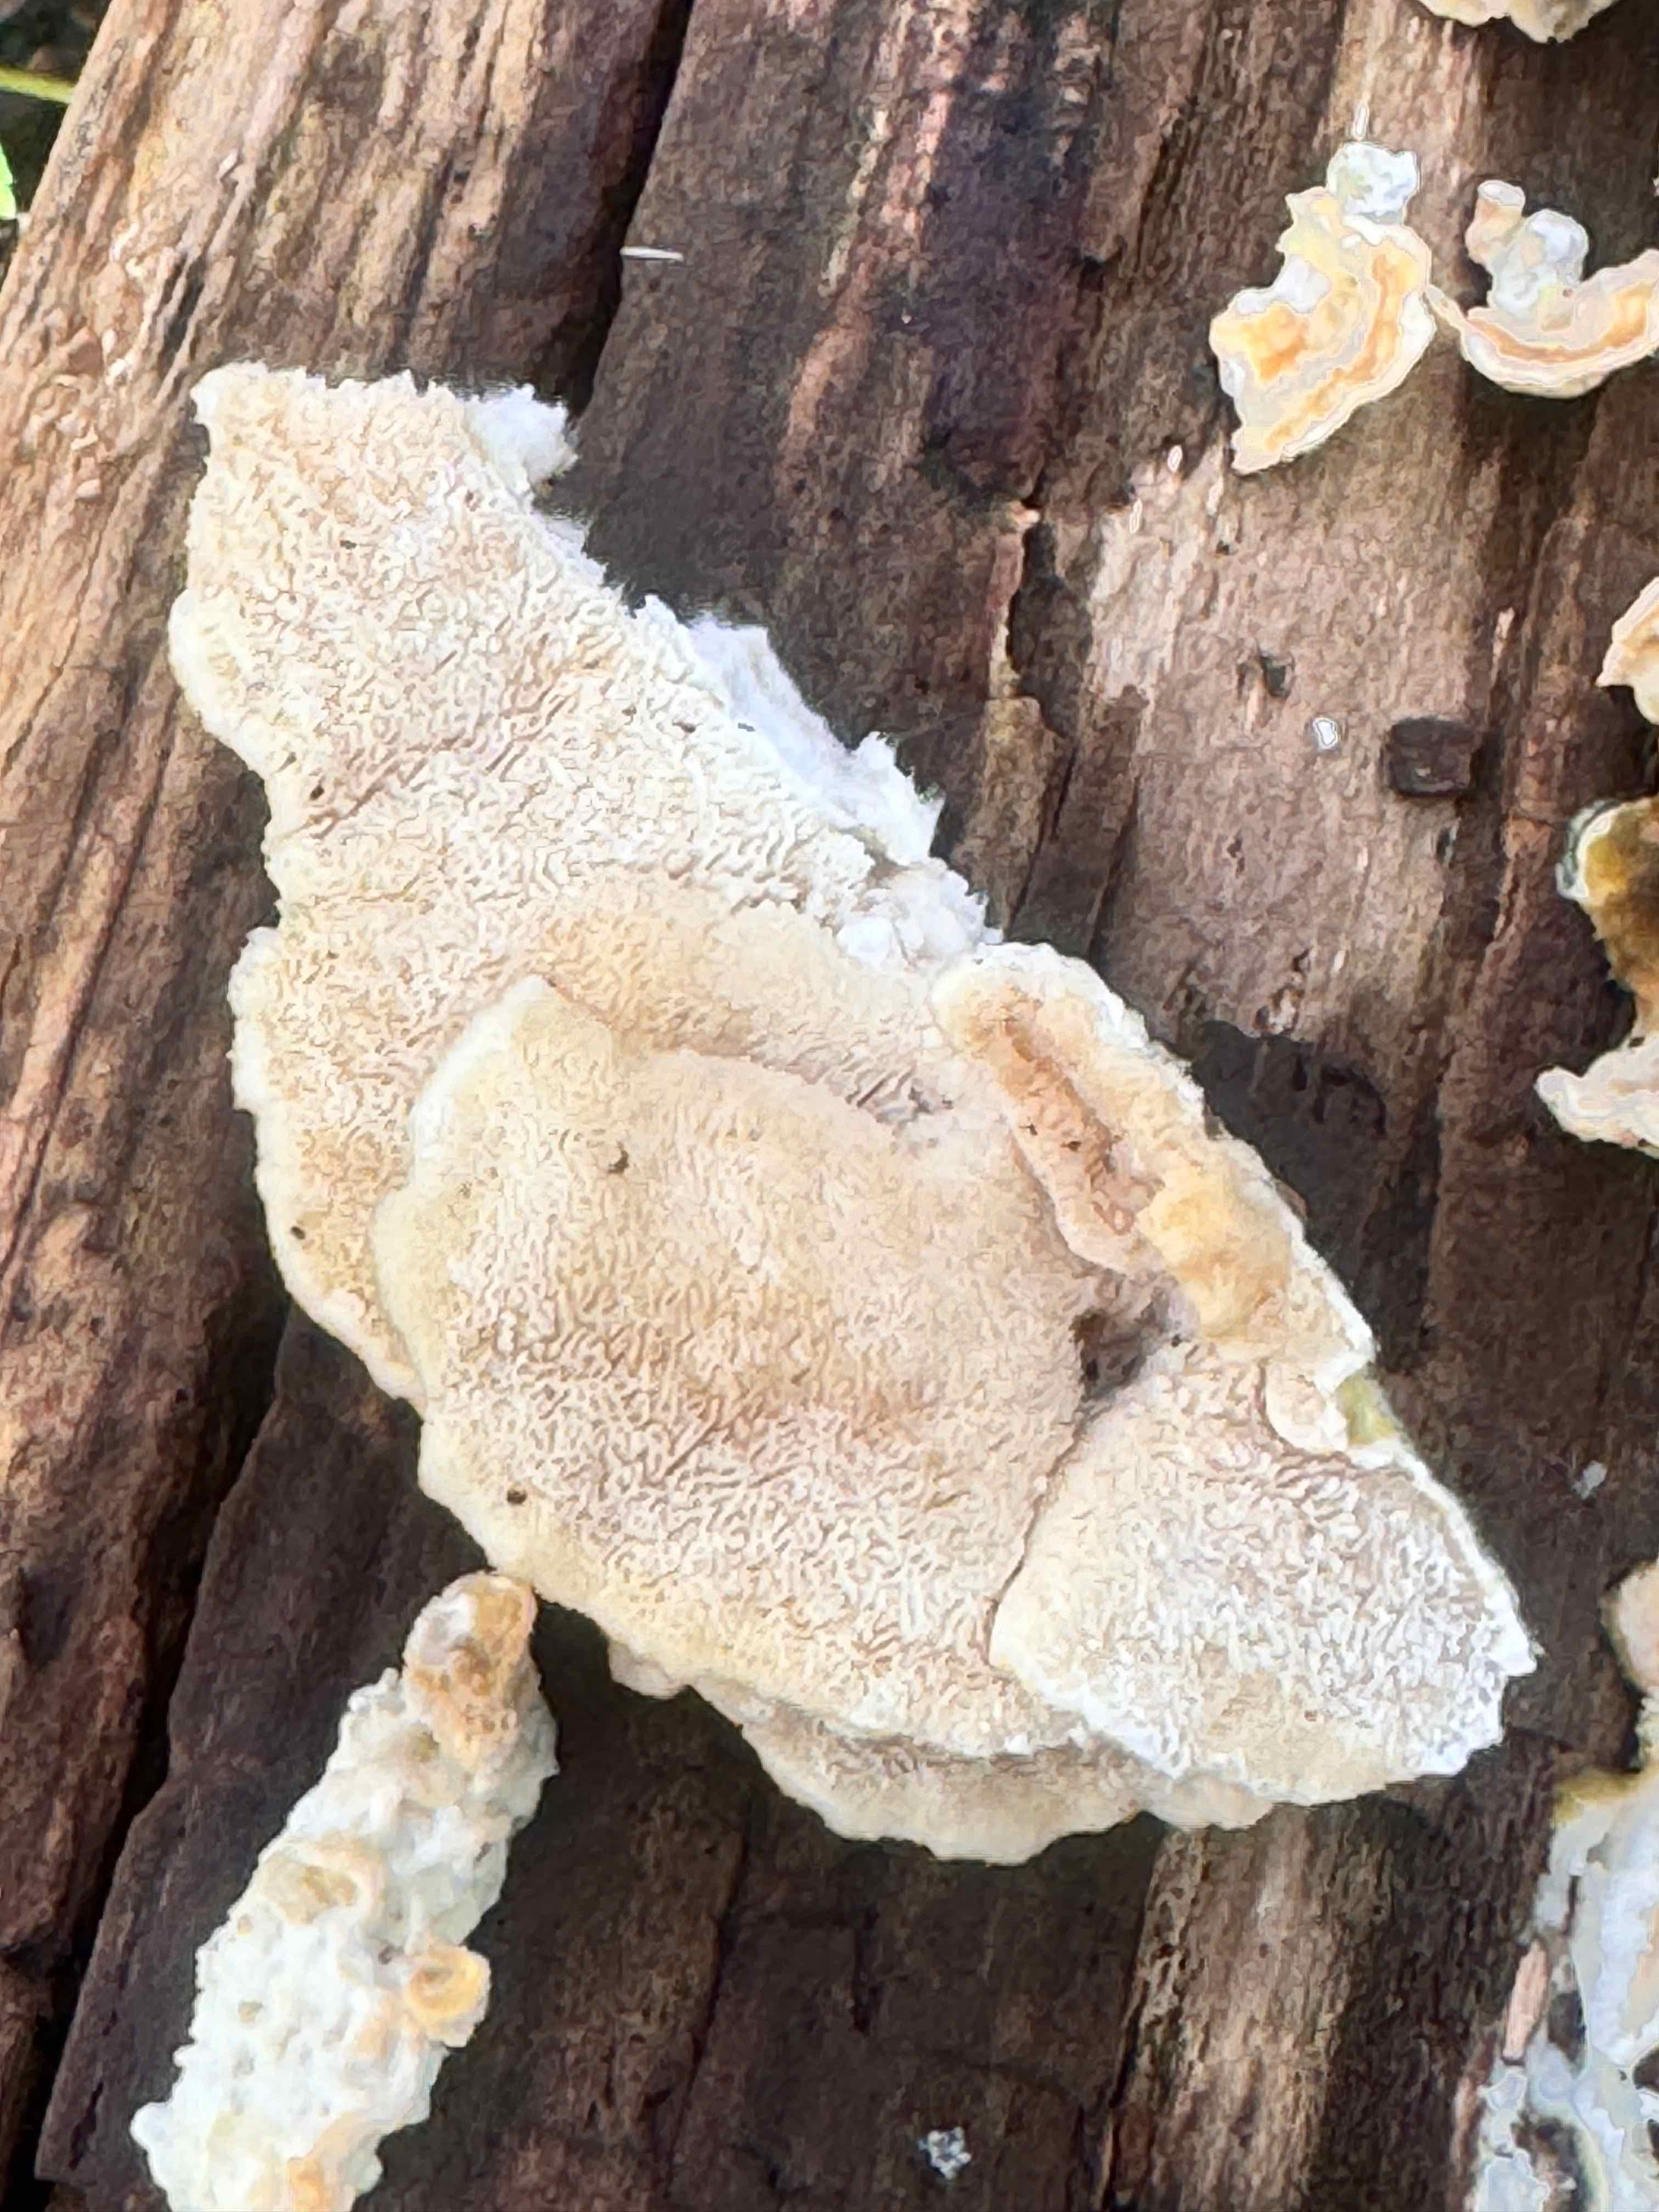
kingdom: Fungi
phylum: Basidiomycota
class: Agaricomycetes
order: Polyporales
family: Polyporaceae
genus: Trametes
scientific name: Trametes ochracea
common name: bæltet læderporesvamp
